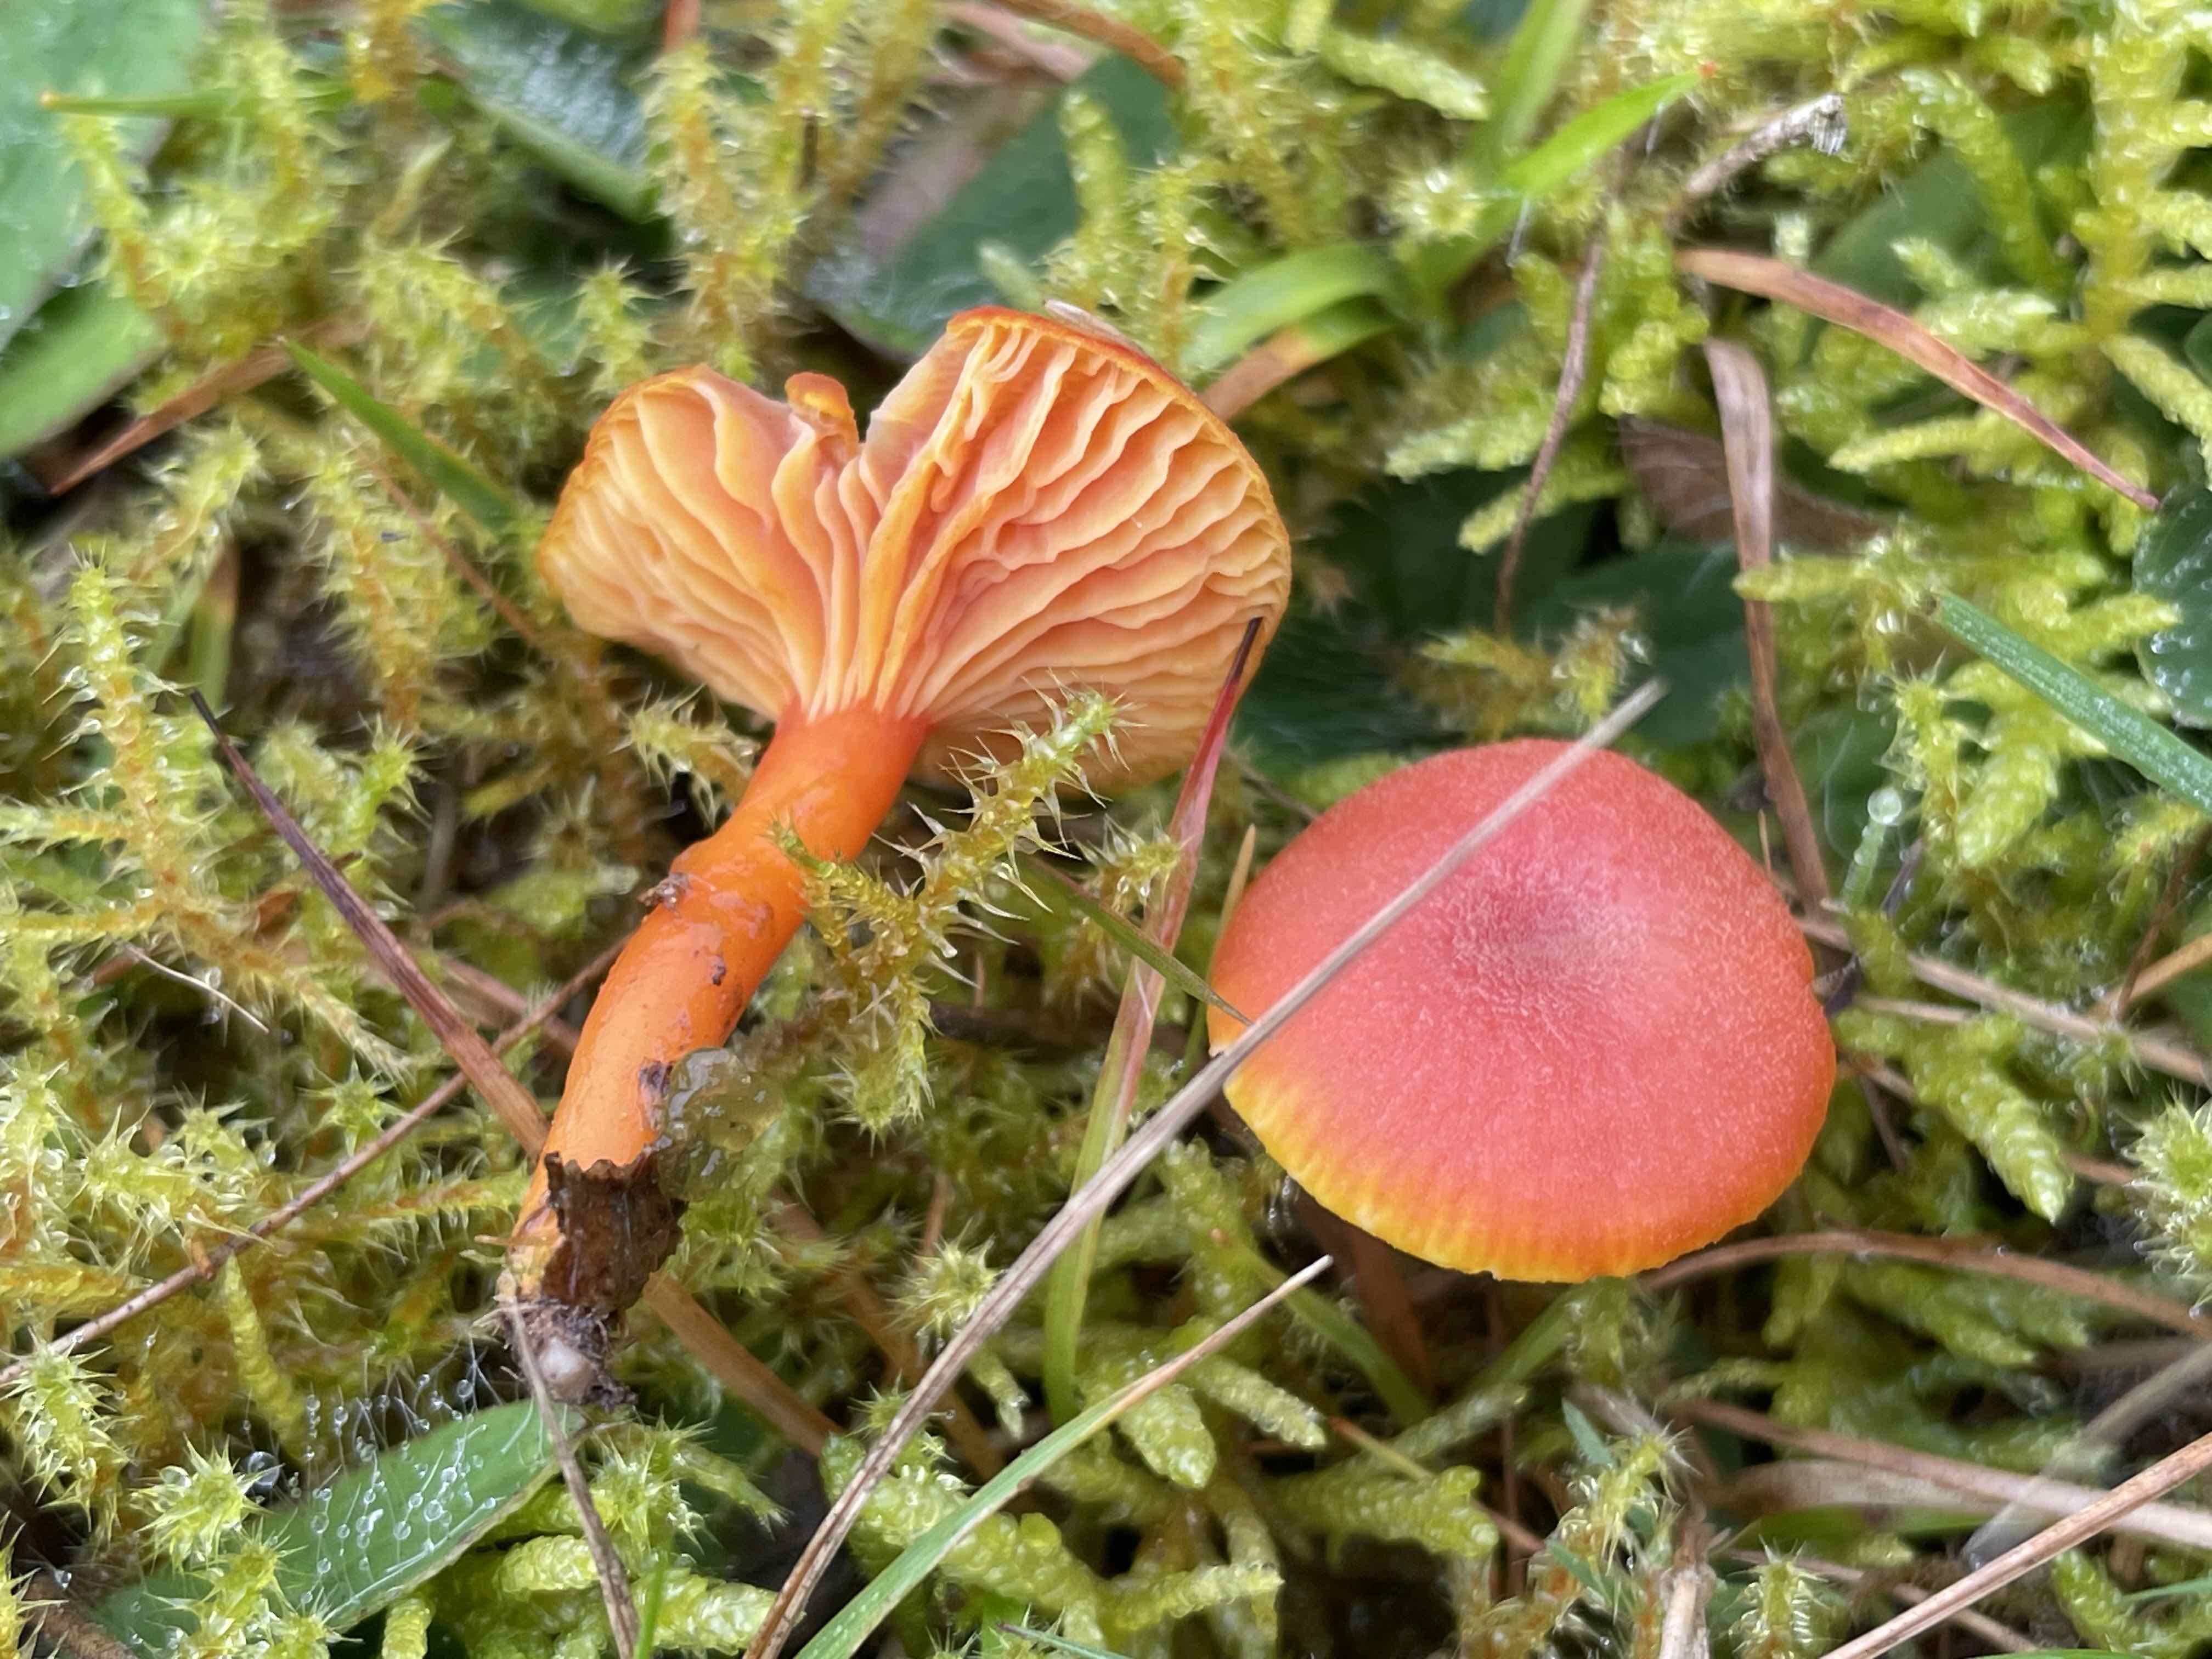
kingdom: Fungi
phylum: Basidiomycota
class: Agaricomycetes
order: Agaricales
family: Hygrophoraceae
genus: Hygrocybe
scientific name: Hygrocybe miniata
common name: mønje-vokshat
